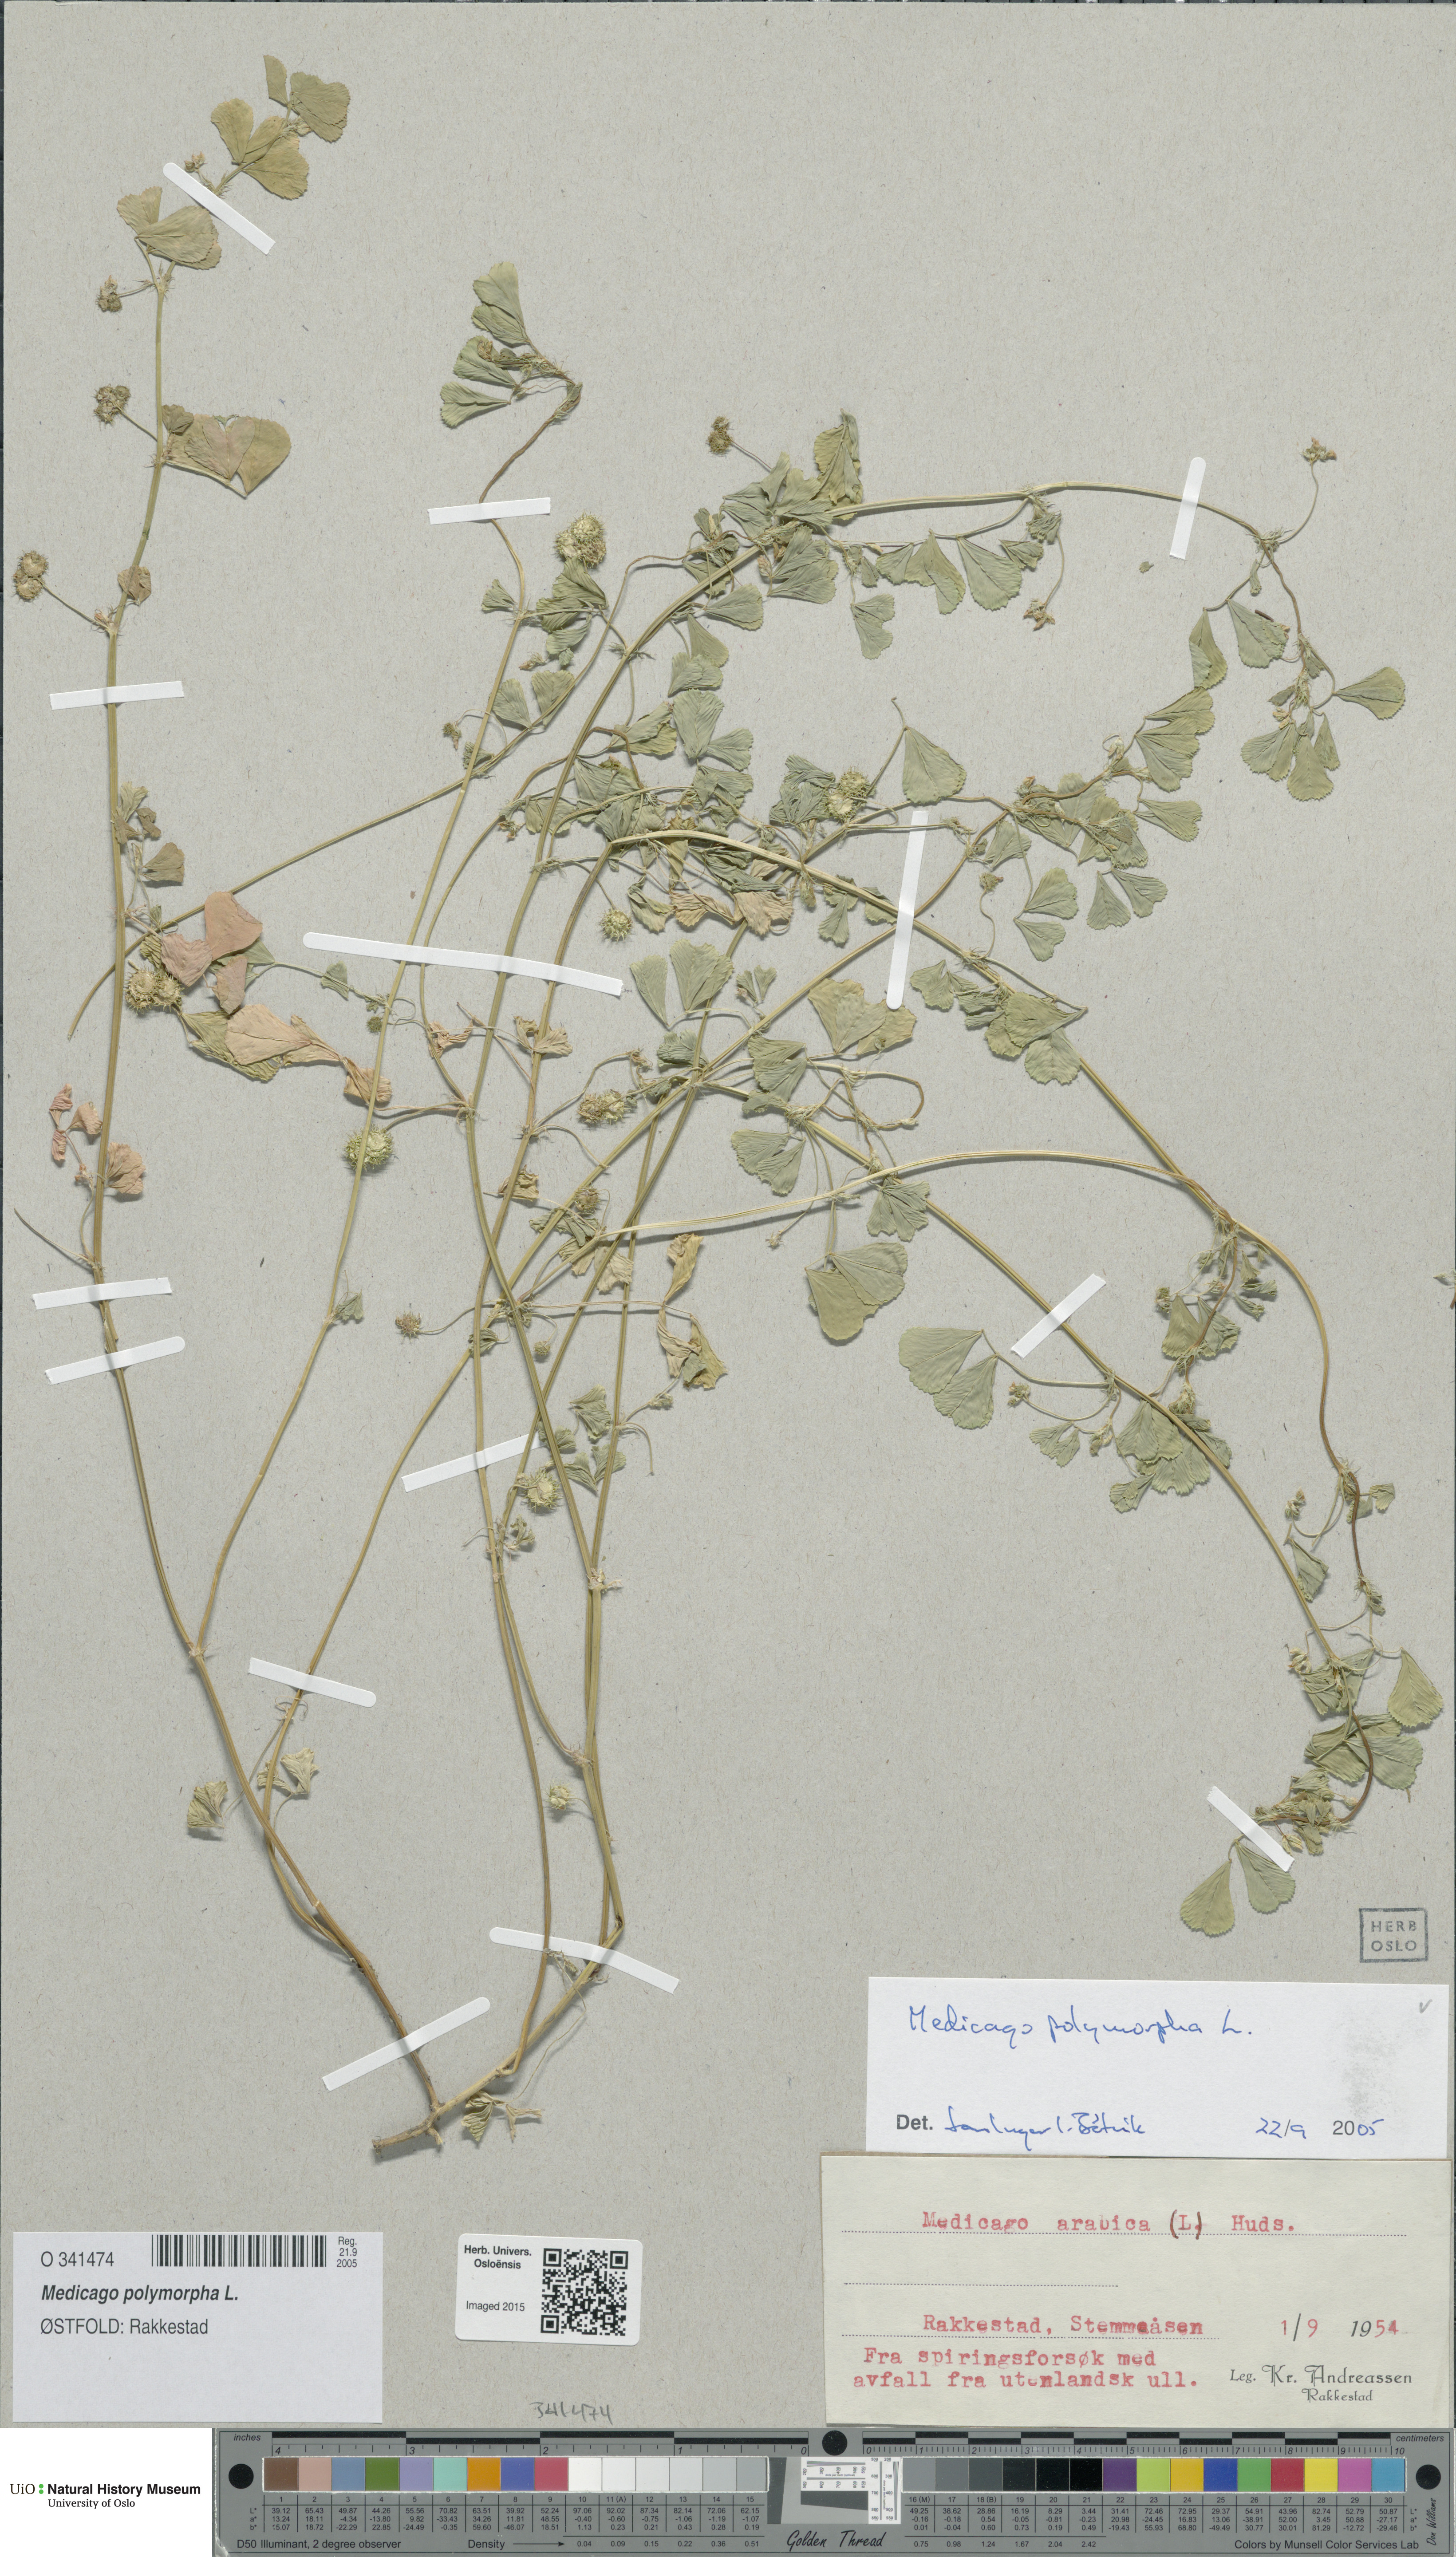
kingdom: Plantae
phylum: Tracheophyta
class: Magnoliopsida
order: Fabales
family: Fabaceae
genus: Medicago
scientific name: Medicago polymorpha
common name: Burclover
